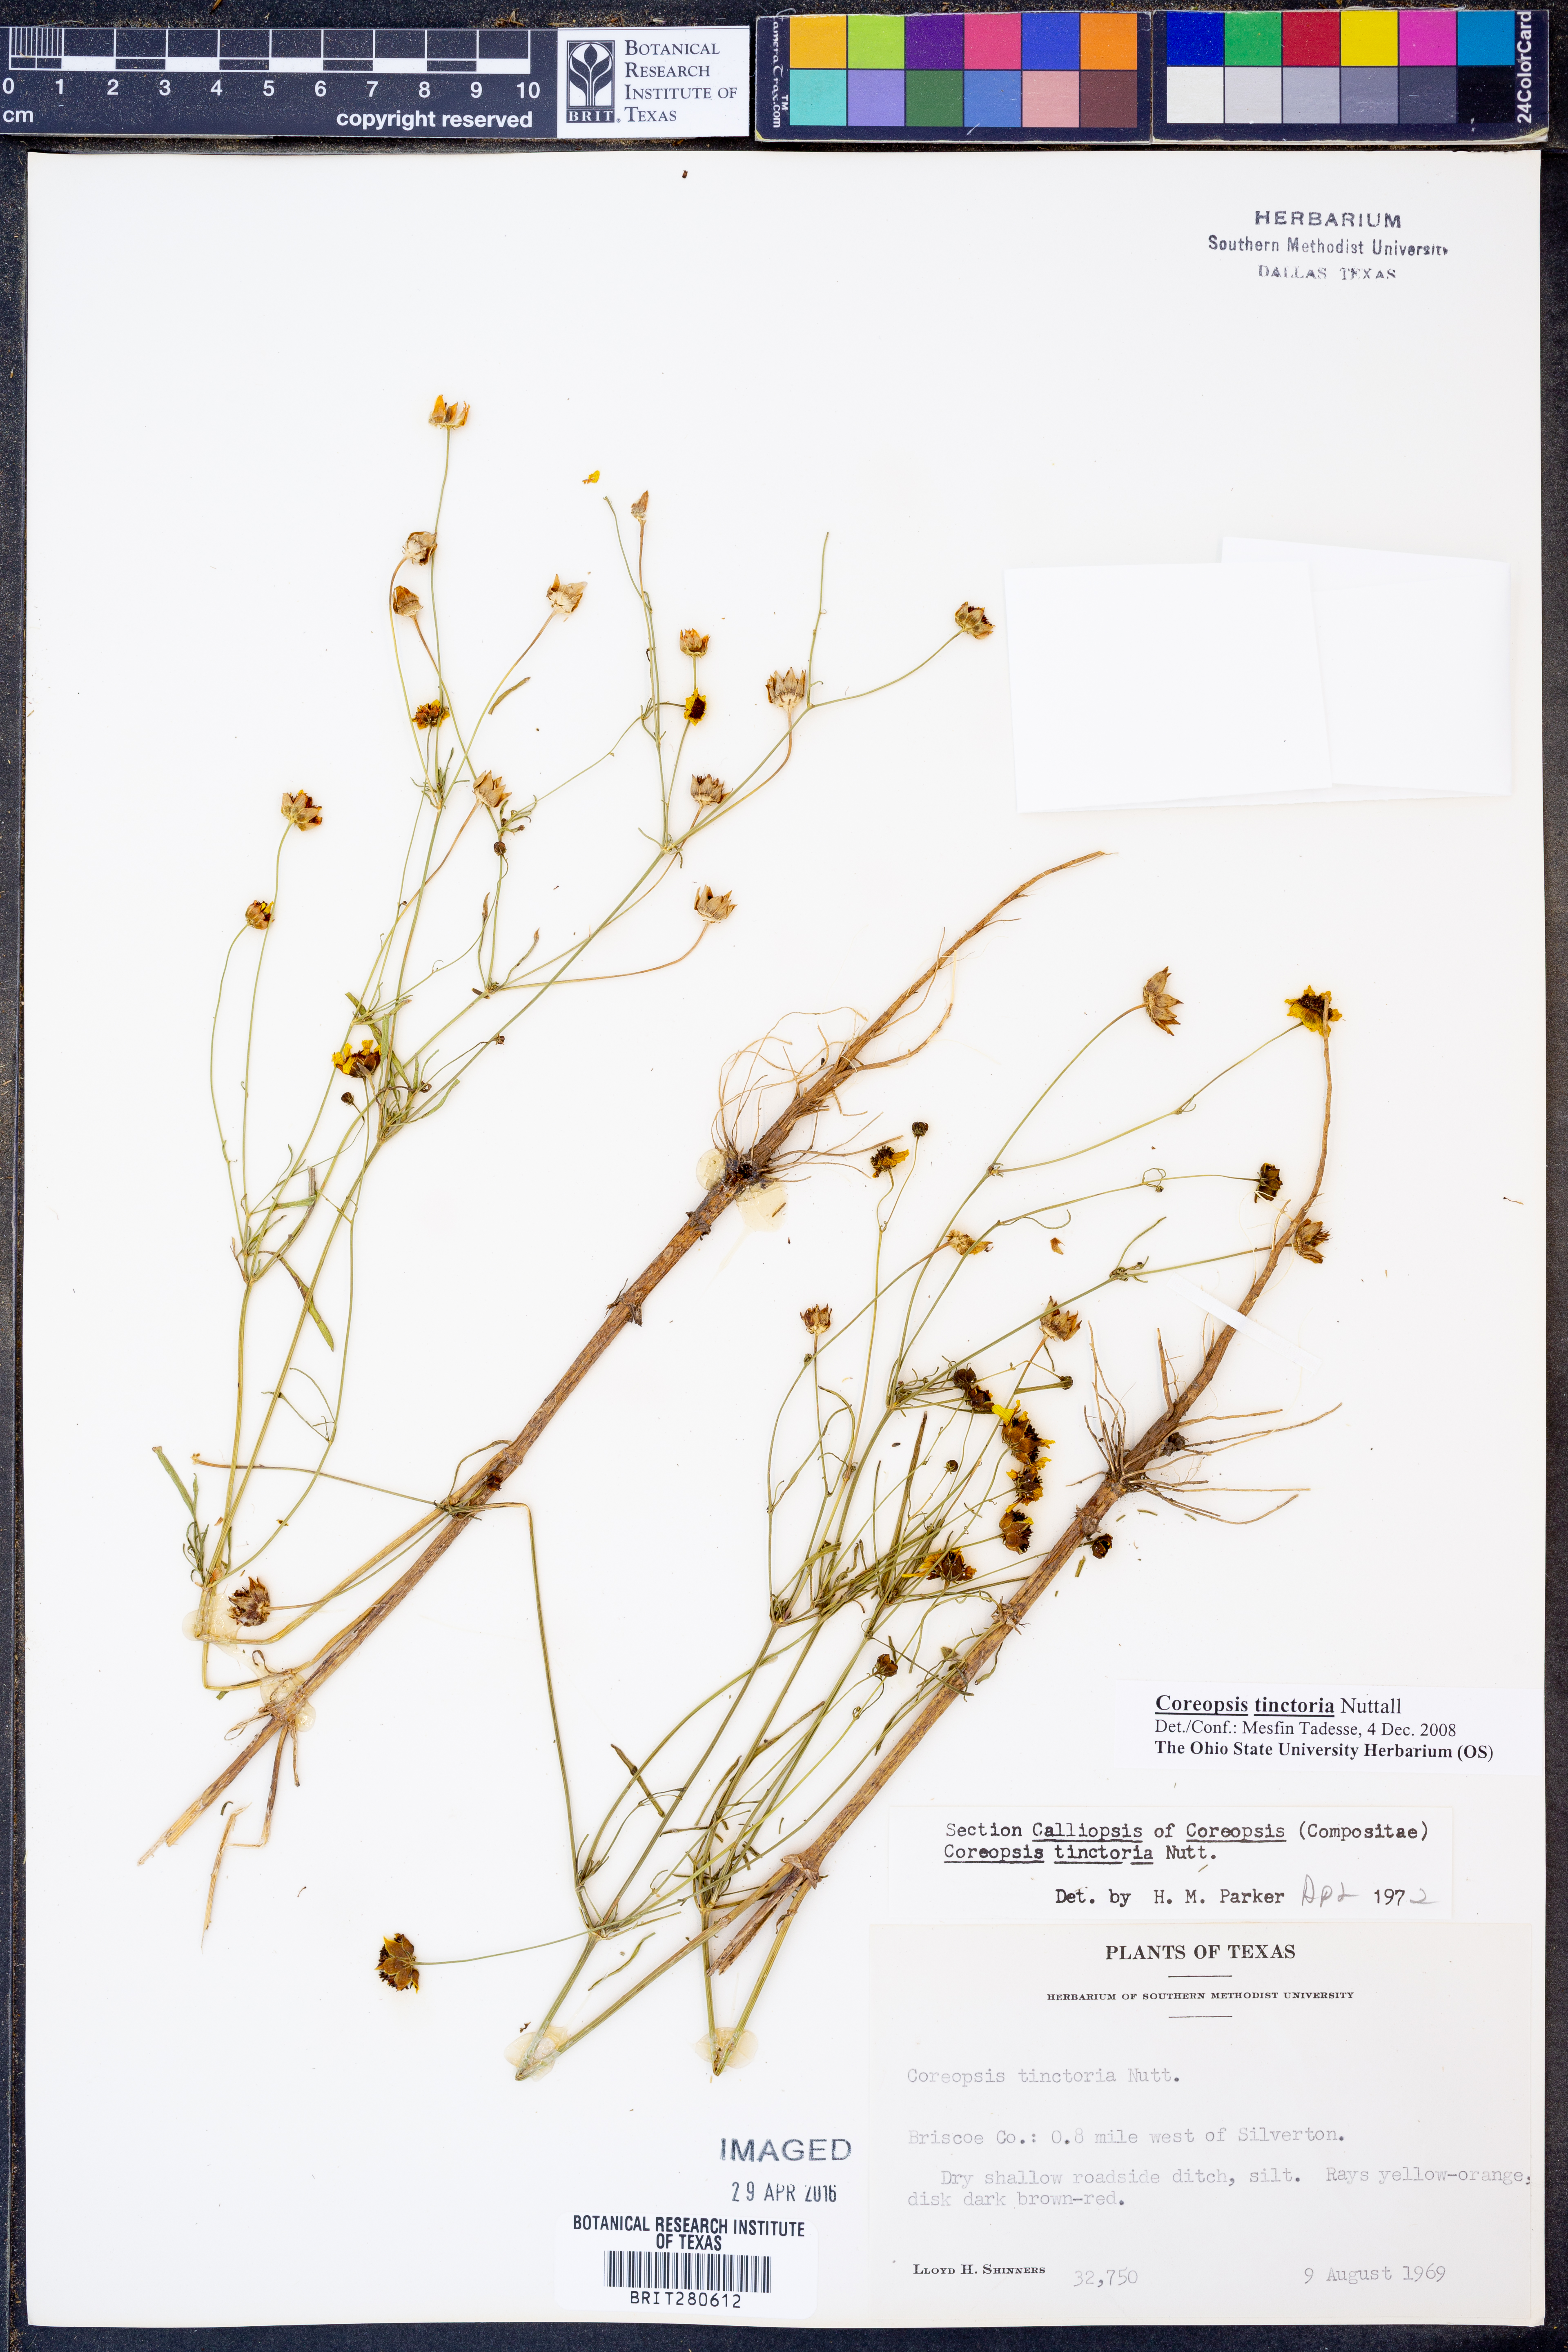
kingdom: Plantae
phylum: Tracheophyta
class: Magnoliopsida
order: Asterales
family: Asteraceae
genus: Coreopsis
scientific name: Coreopsis tinctoria
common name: Garden tickseed
